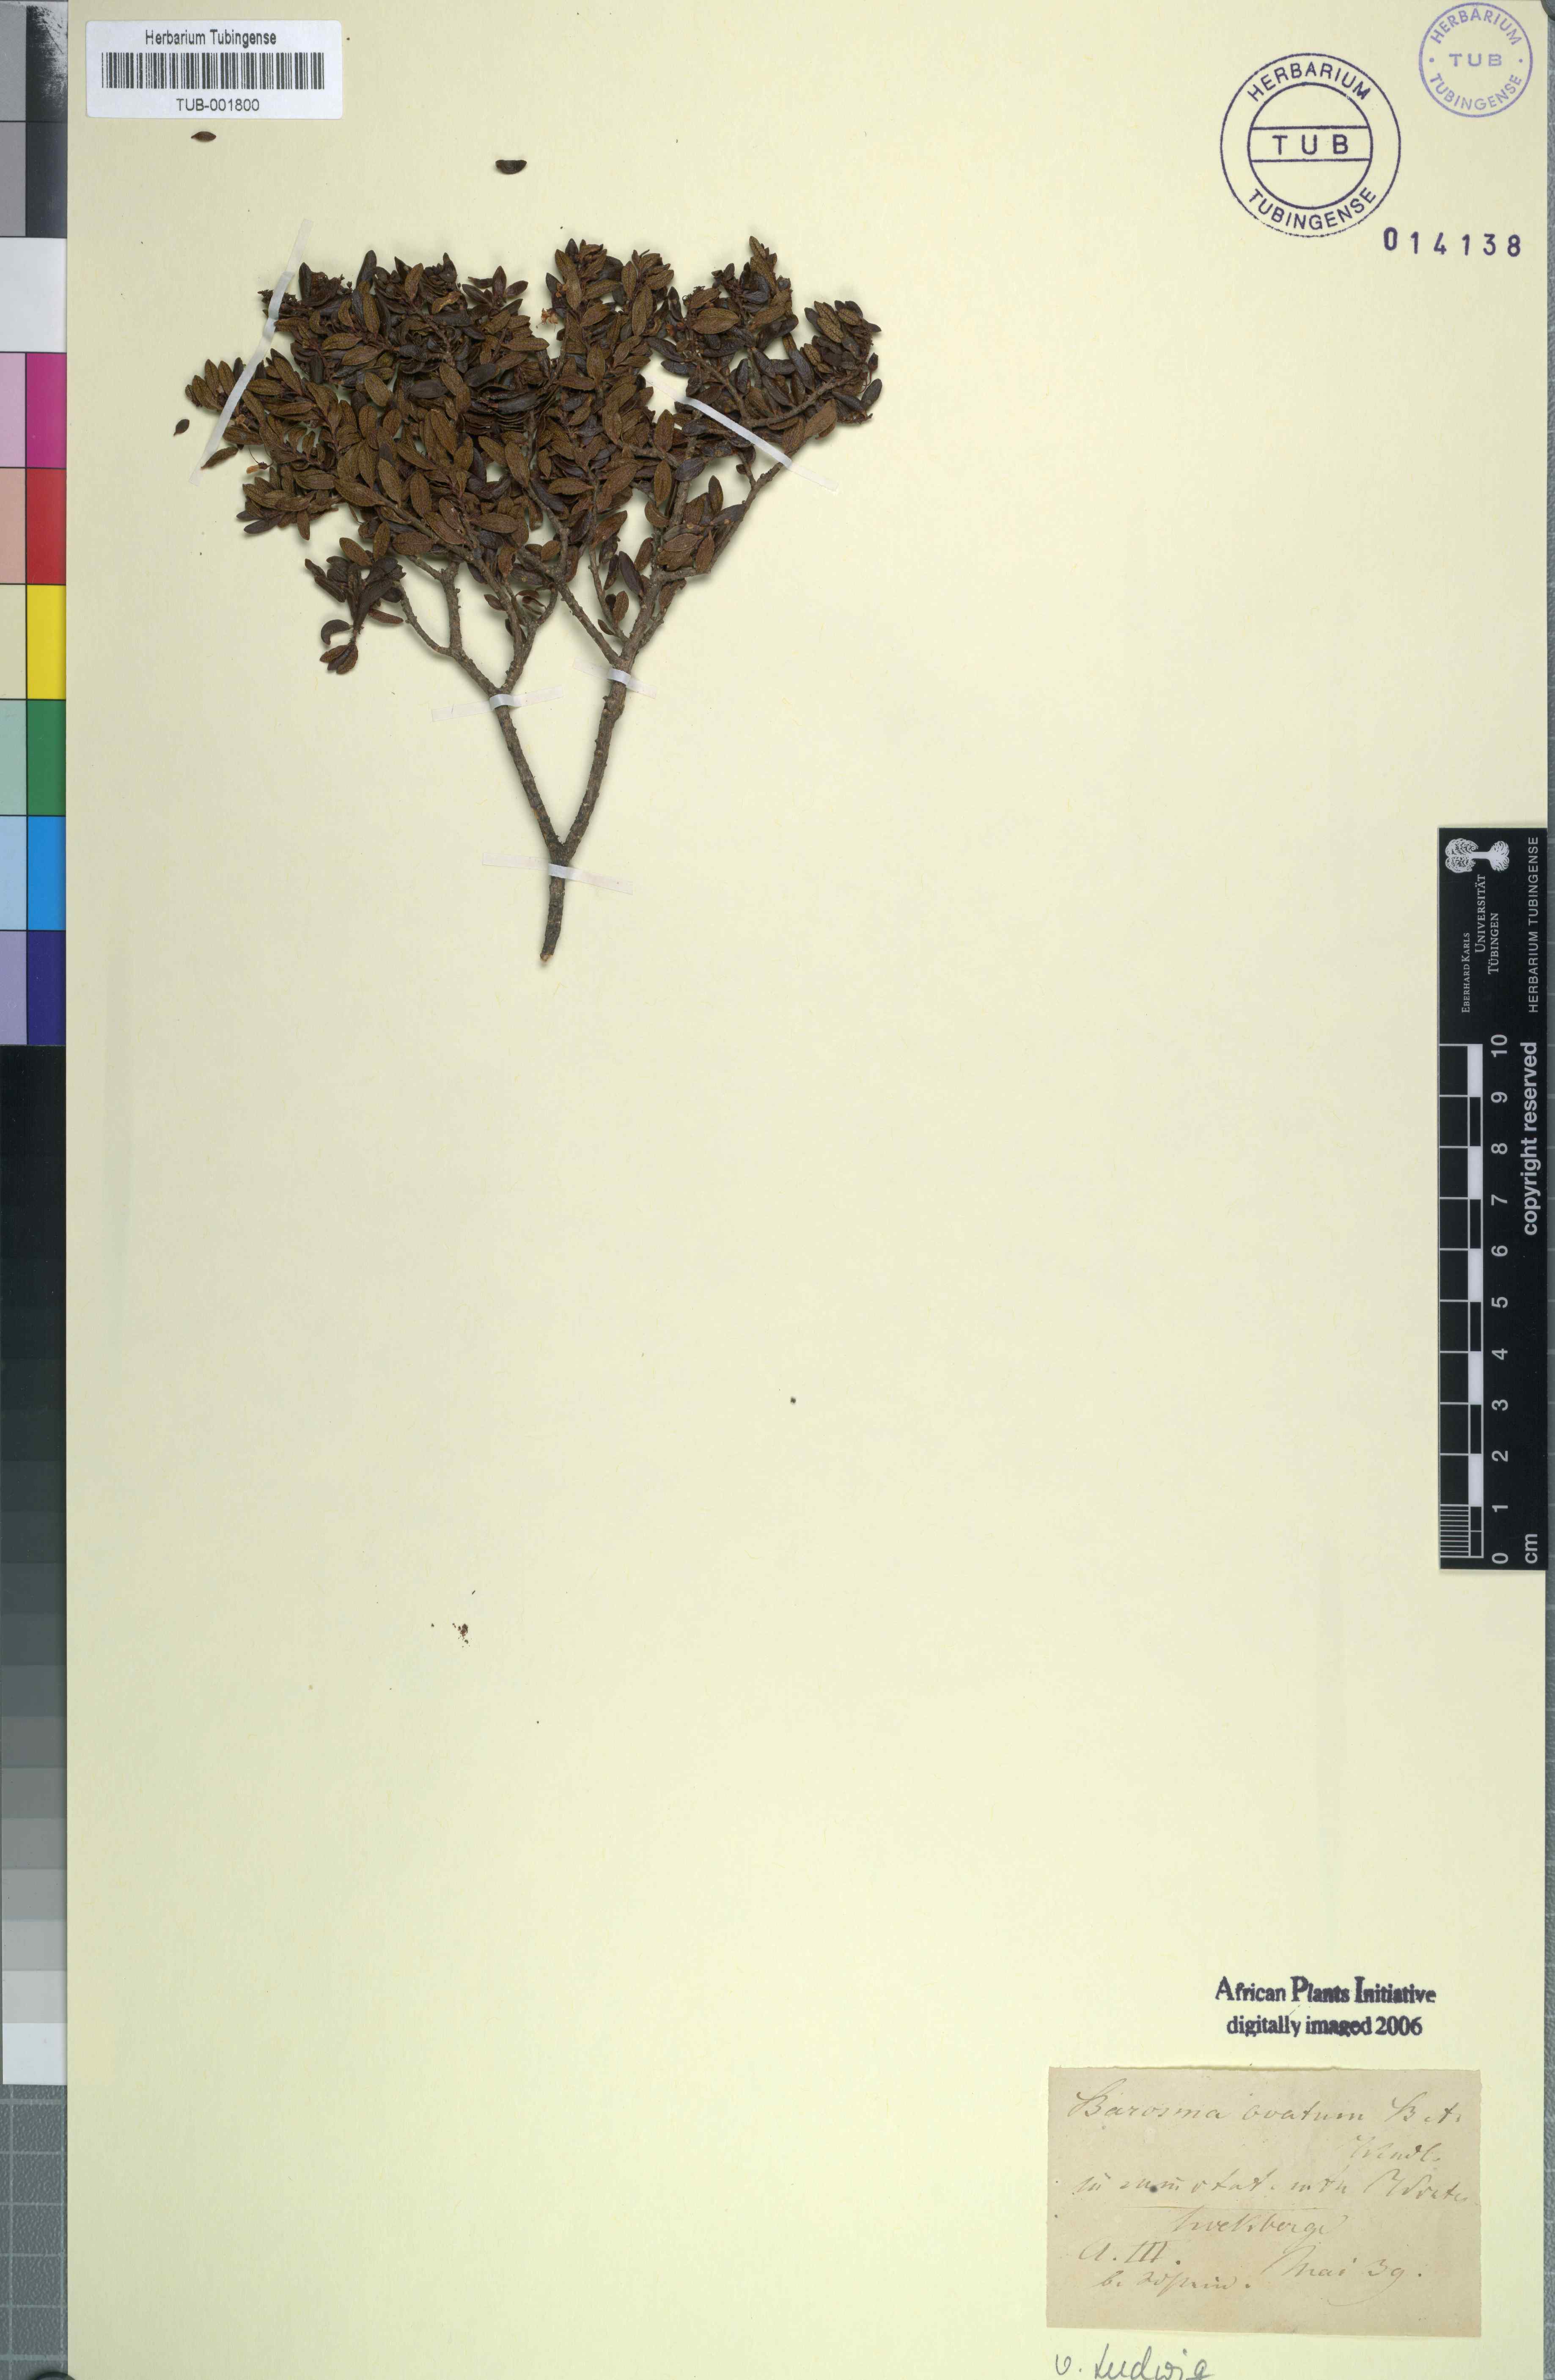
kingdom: Plantae
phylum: Tracheophyta
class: Magnoliopsida
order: Sapindales
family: Rutaceae
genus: Agathosma
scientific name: Agathosma ovata
